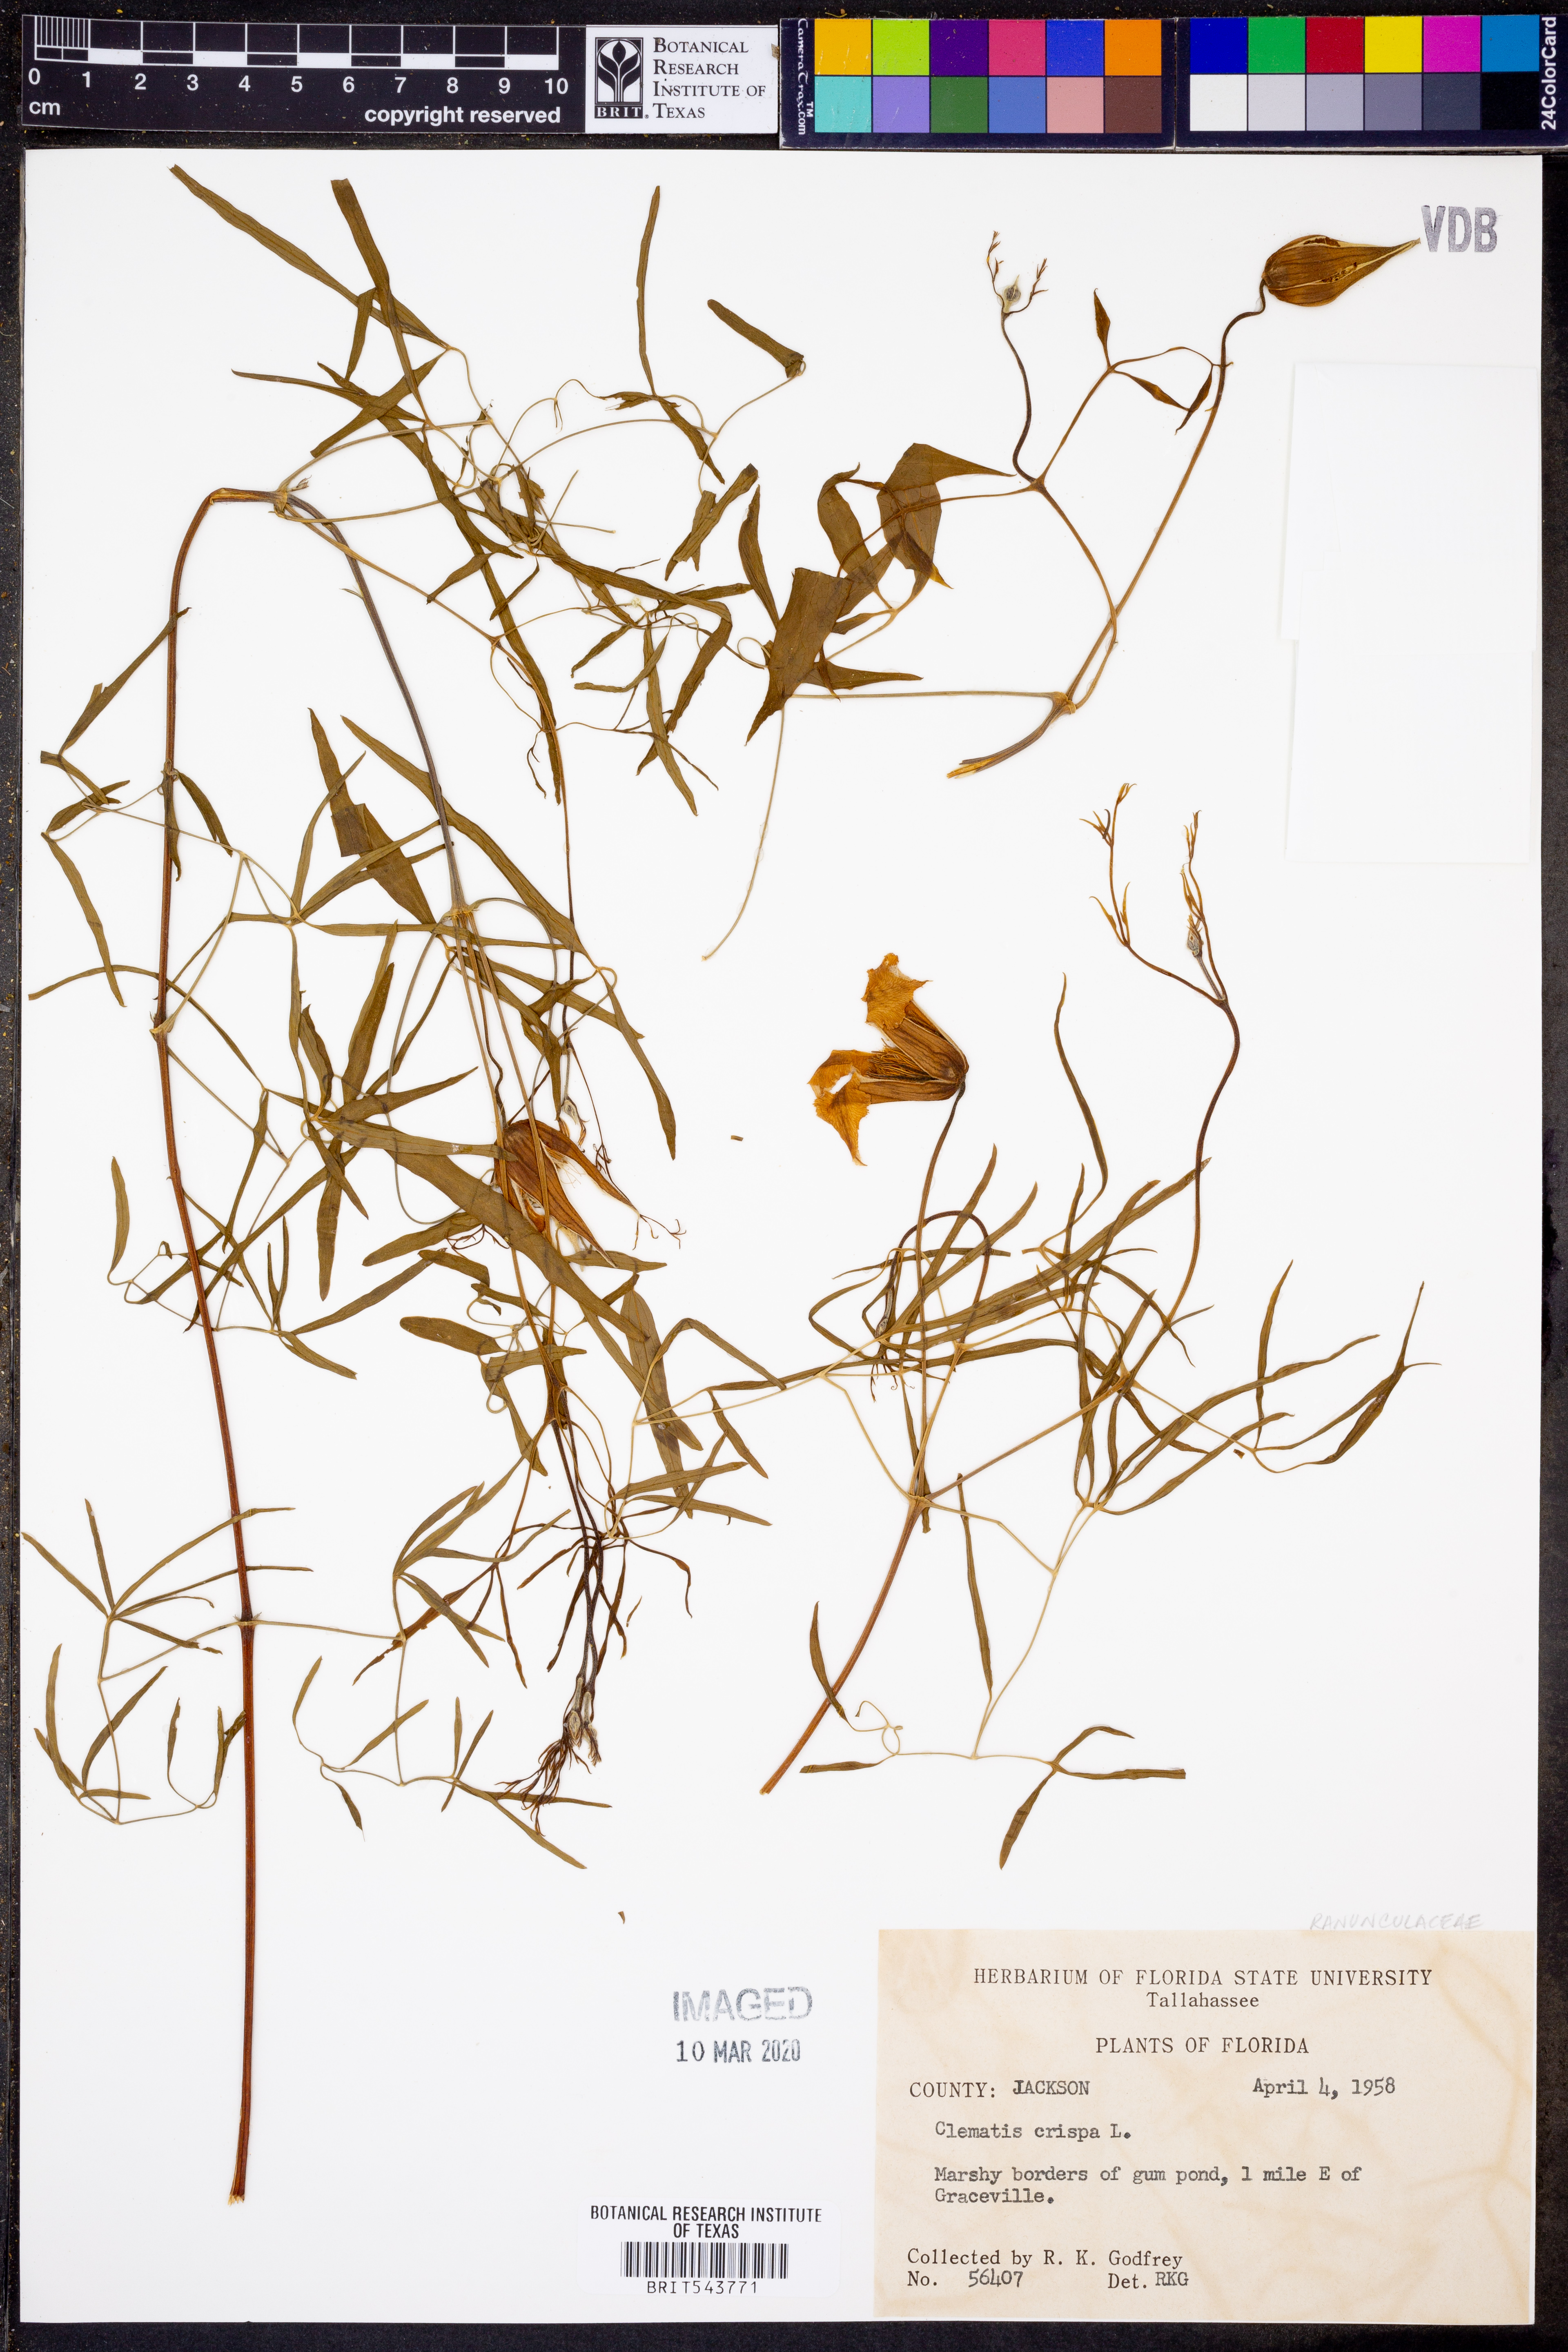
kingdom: Plantae
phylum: Tracheophyta
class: Magnoliopsida
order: Ranunculales
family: Ranunculaceae
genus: Clematis
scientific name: Clematis crispa
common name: Curly clematis
